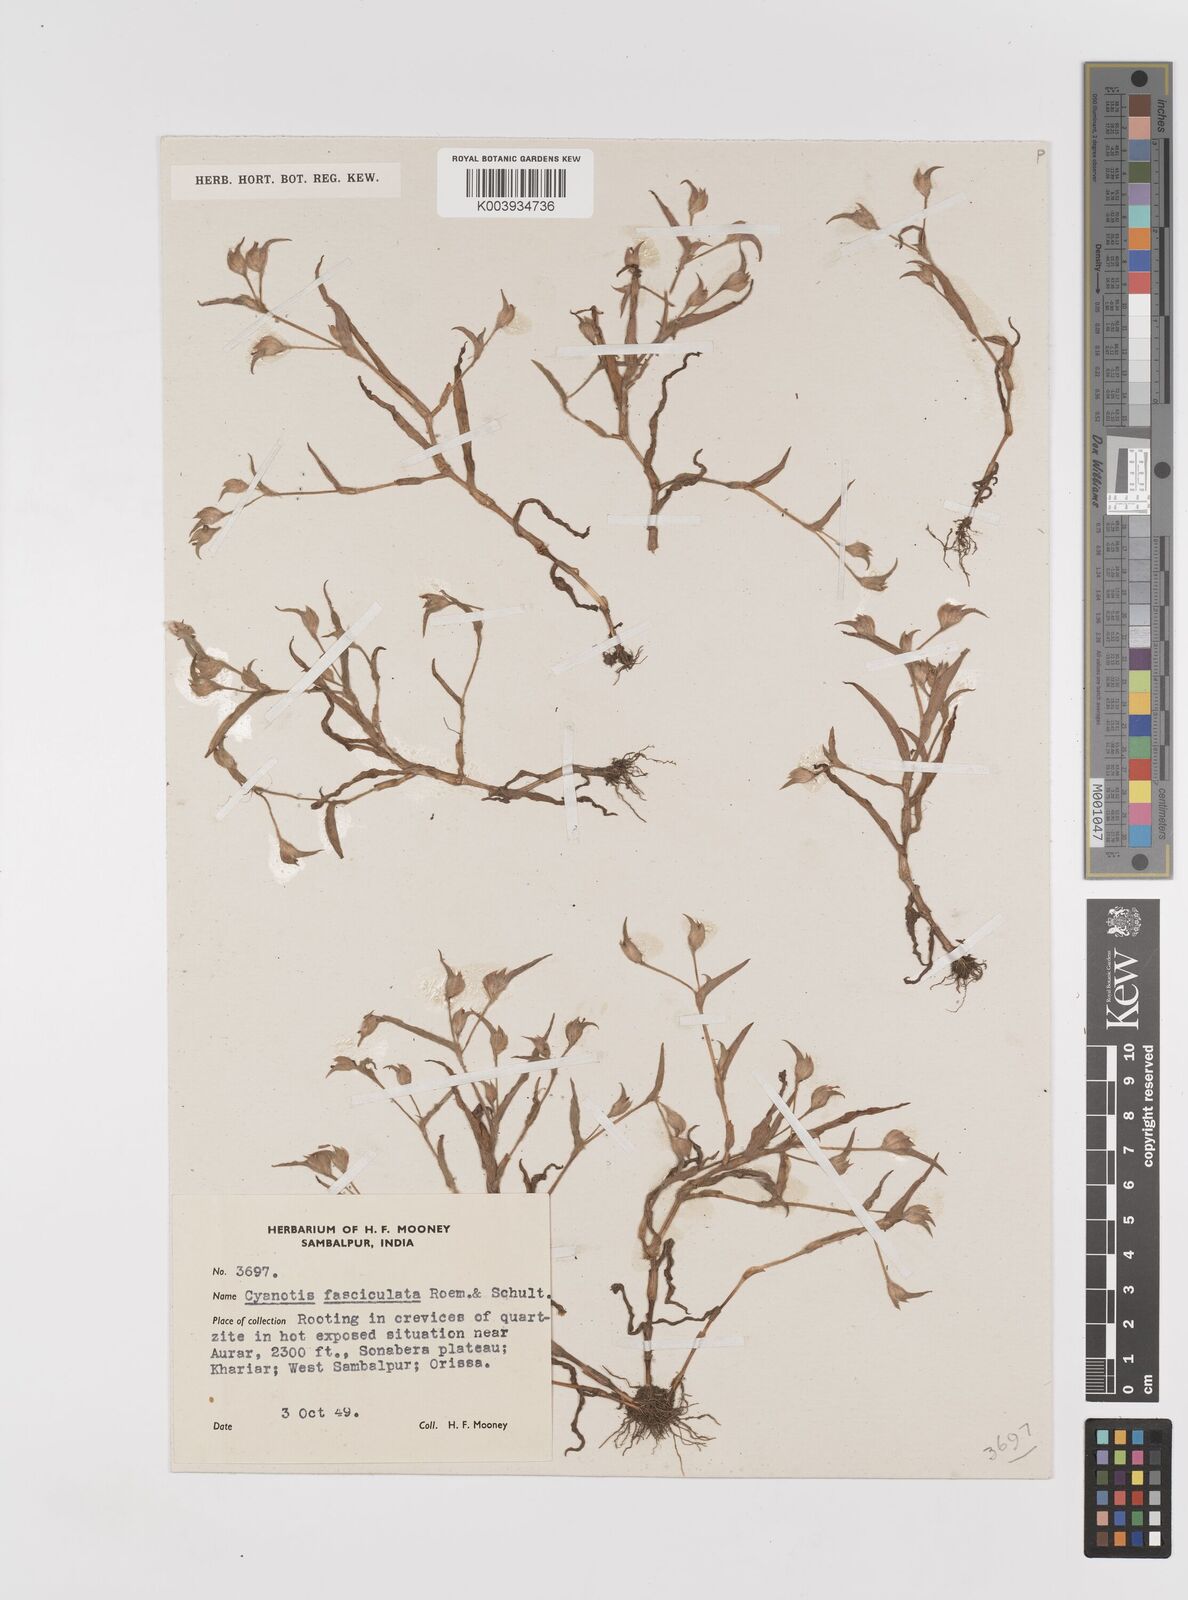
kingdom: Plantae
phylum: Tracheophyta
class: Liliopsida
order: Commelinales
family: Commelinaceae
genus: Cyanotis
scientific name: Cyanotis fasciculata
